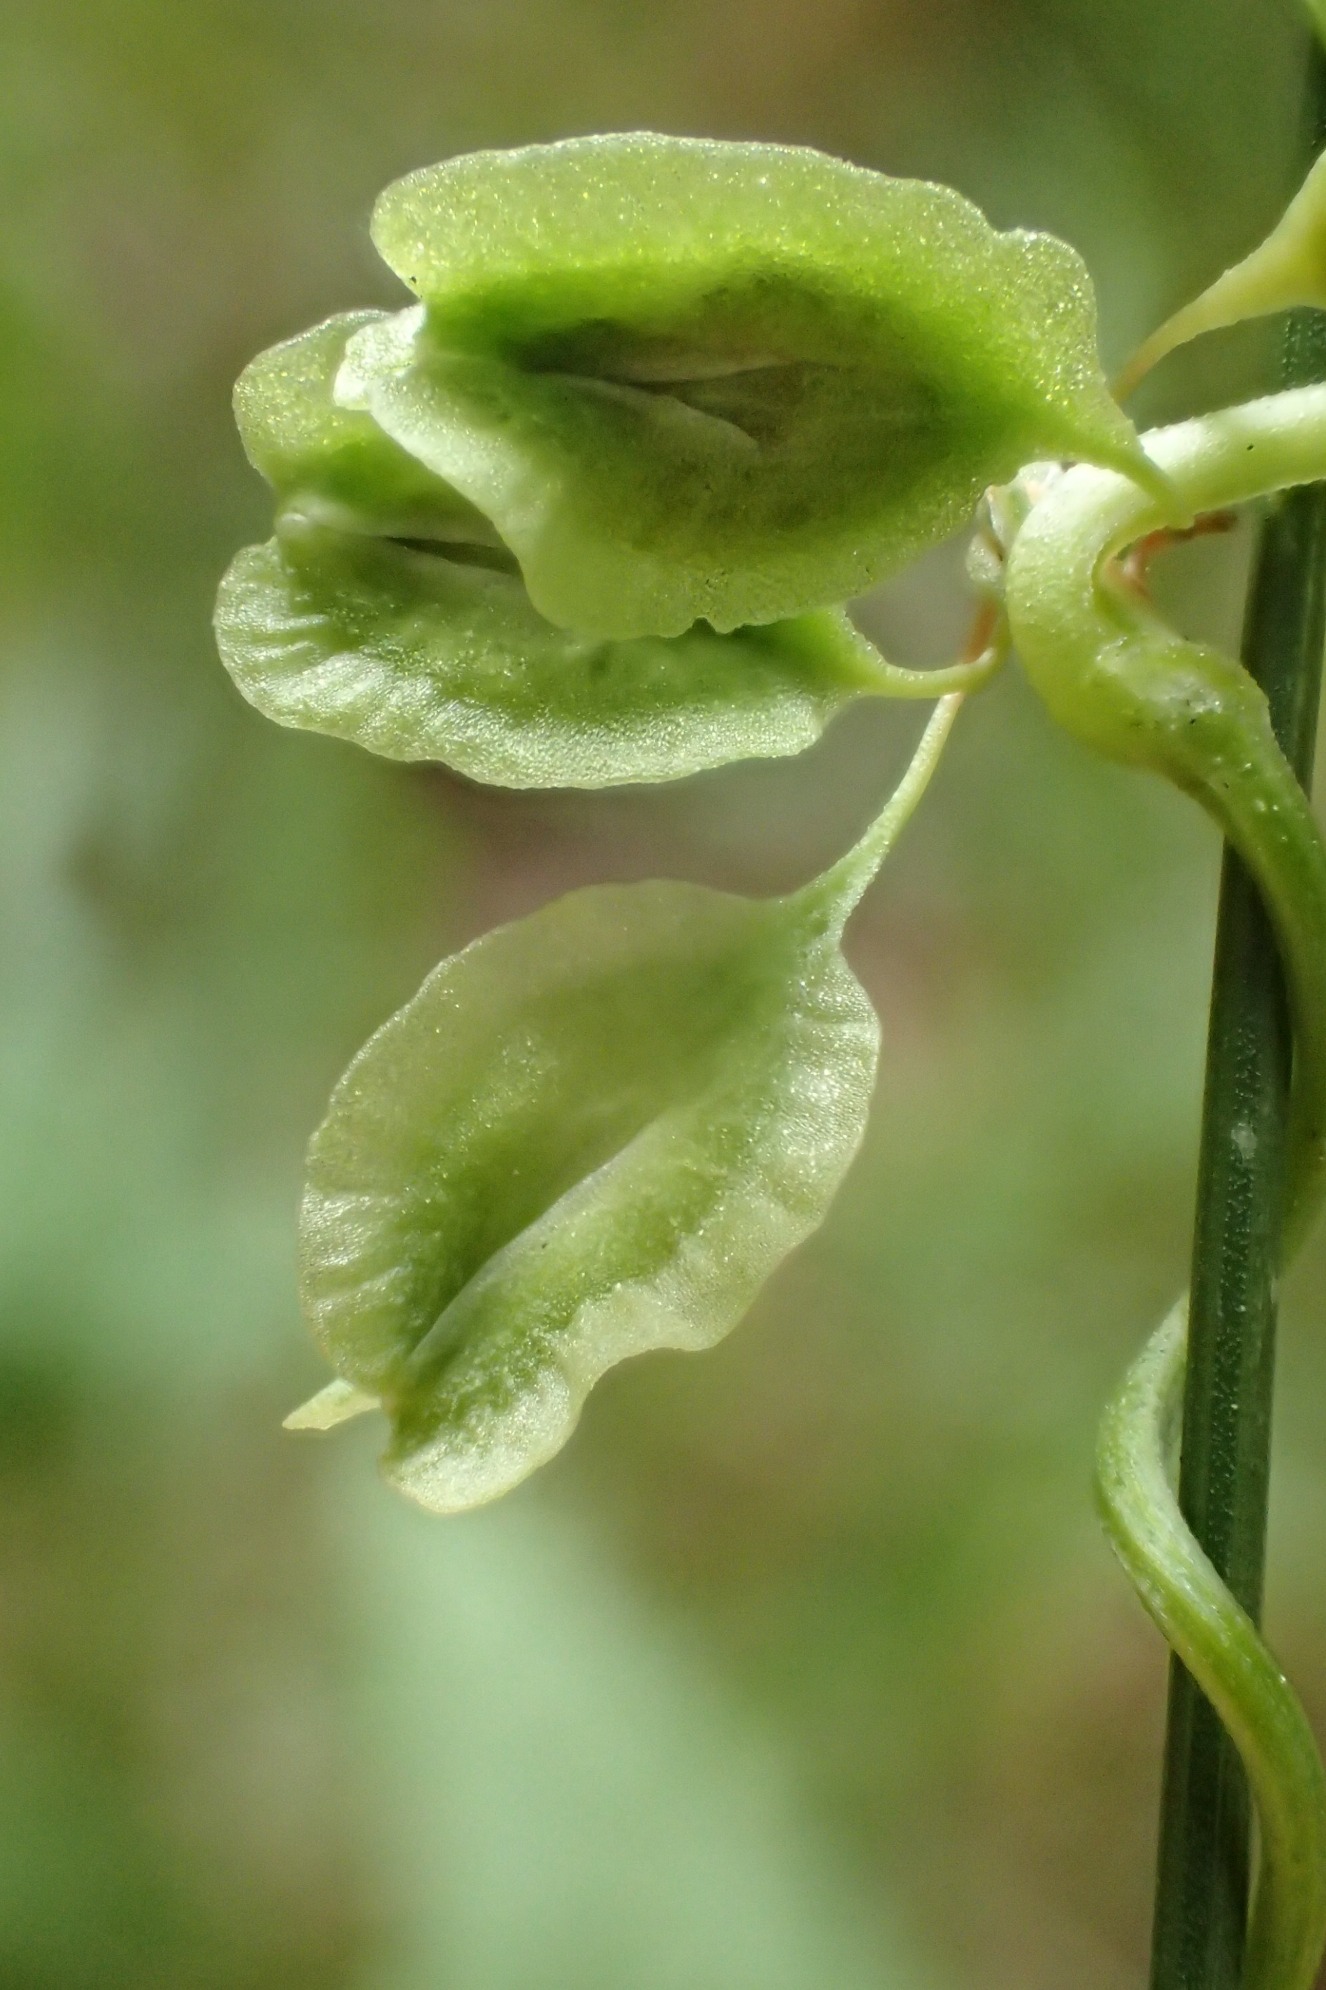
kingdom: Plantae
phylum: Tracheophyta
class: Magnoliopsida
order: Caryophyllales
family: Polygonaceae
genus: Fallopia
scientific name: Fallopia dumetorum
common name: Vinge-pileurt
